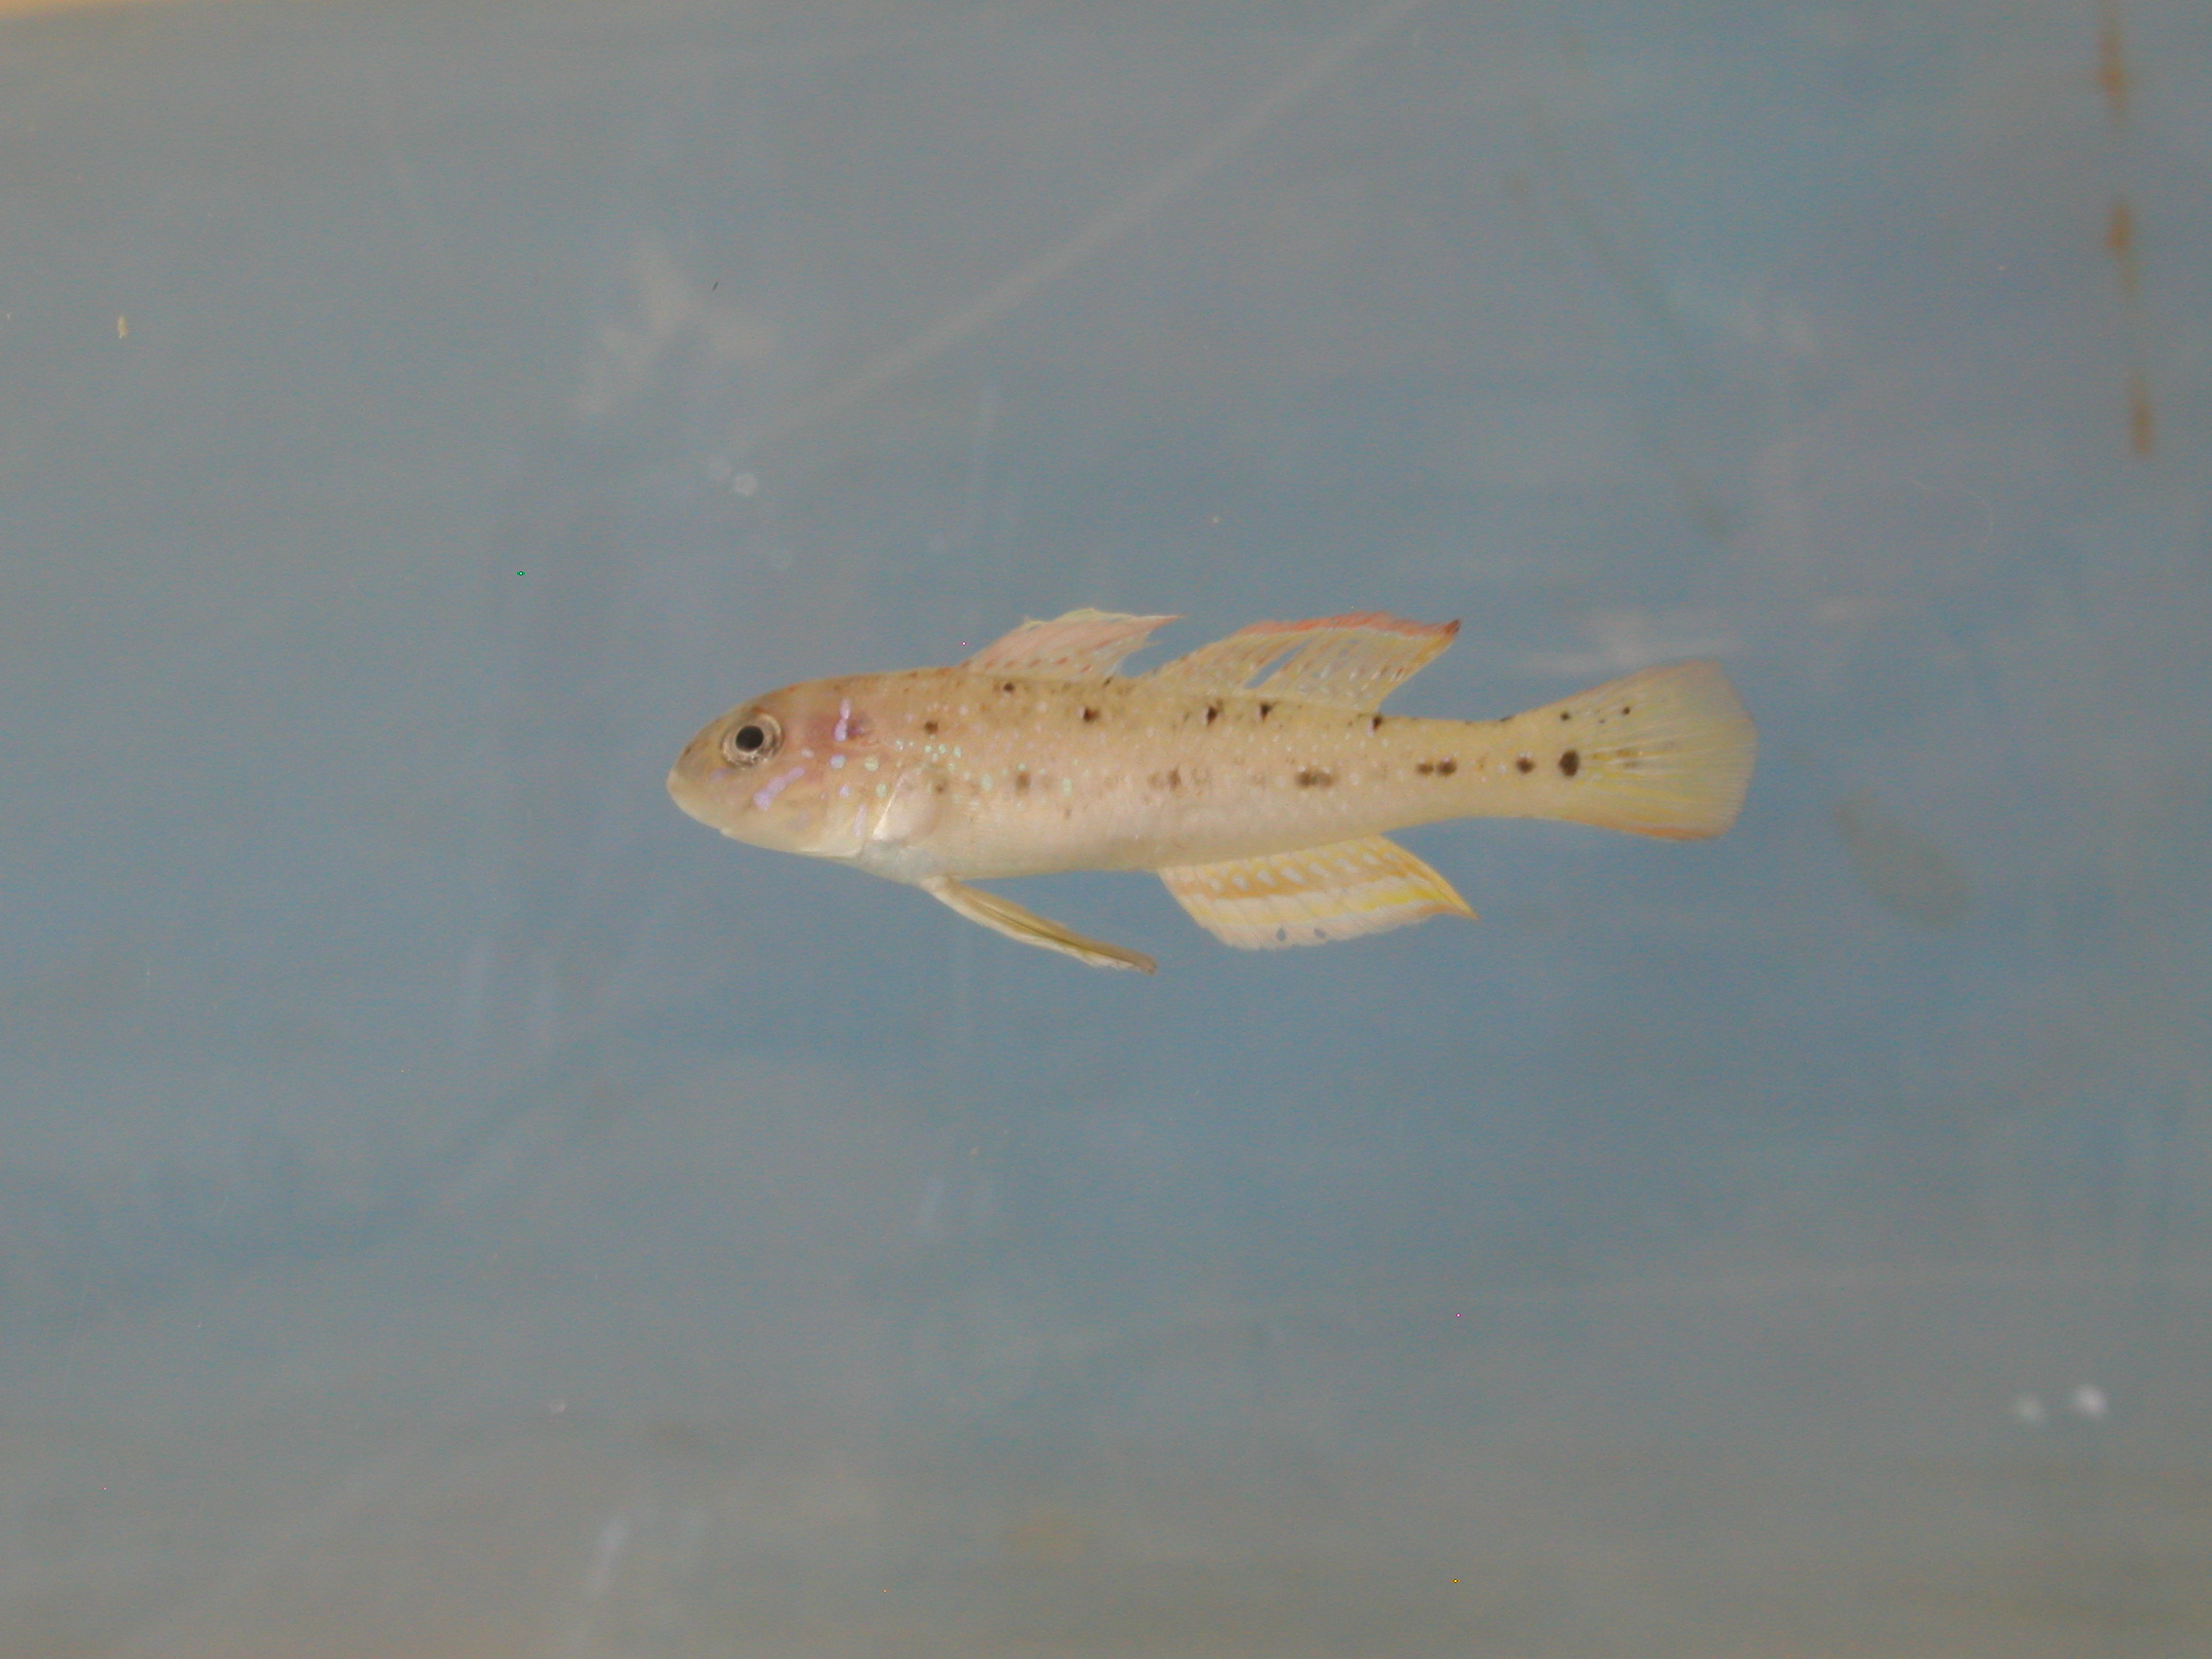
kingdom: Animalia
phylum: Chordata
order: Perciformes
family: Gobiidae
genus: Oplopomus
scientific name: Oplopomus oplopomus
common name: Spinecheek goby
